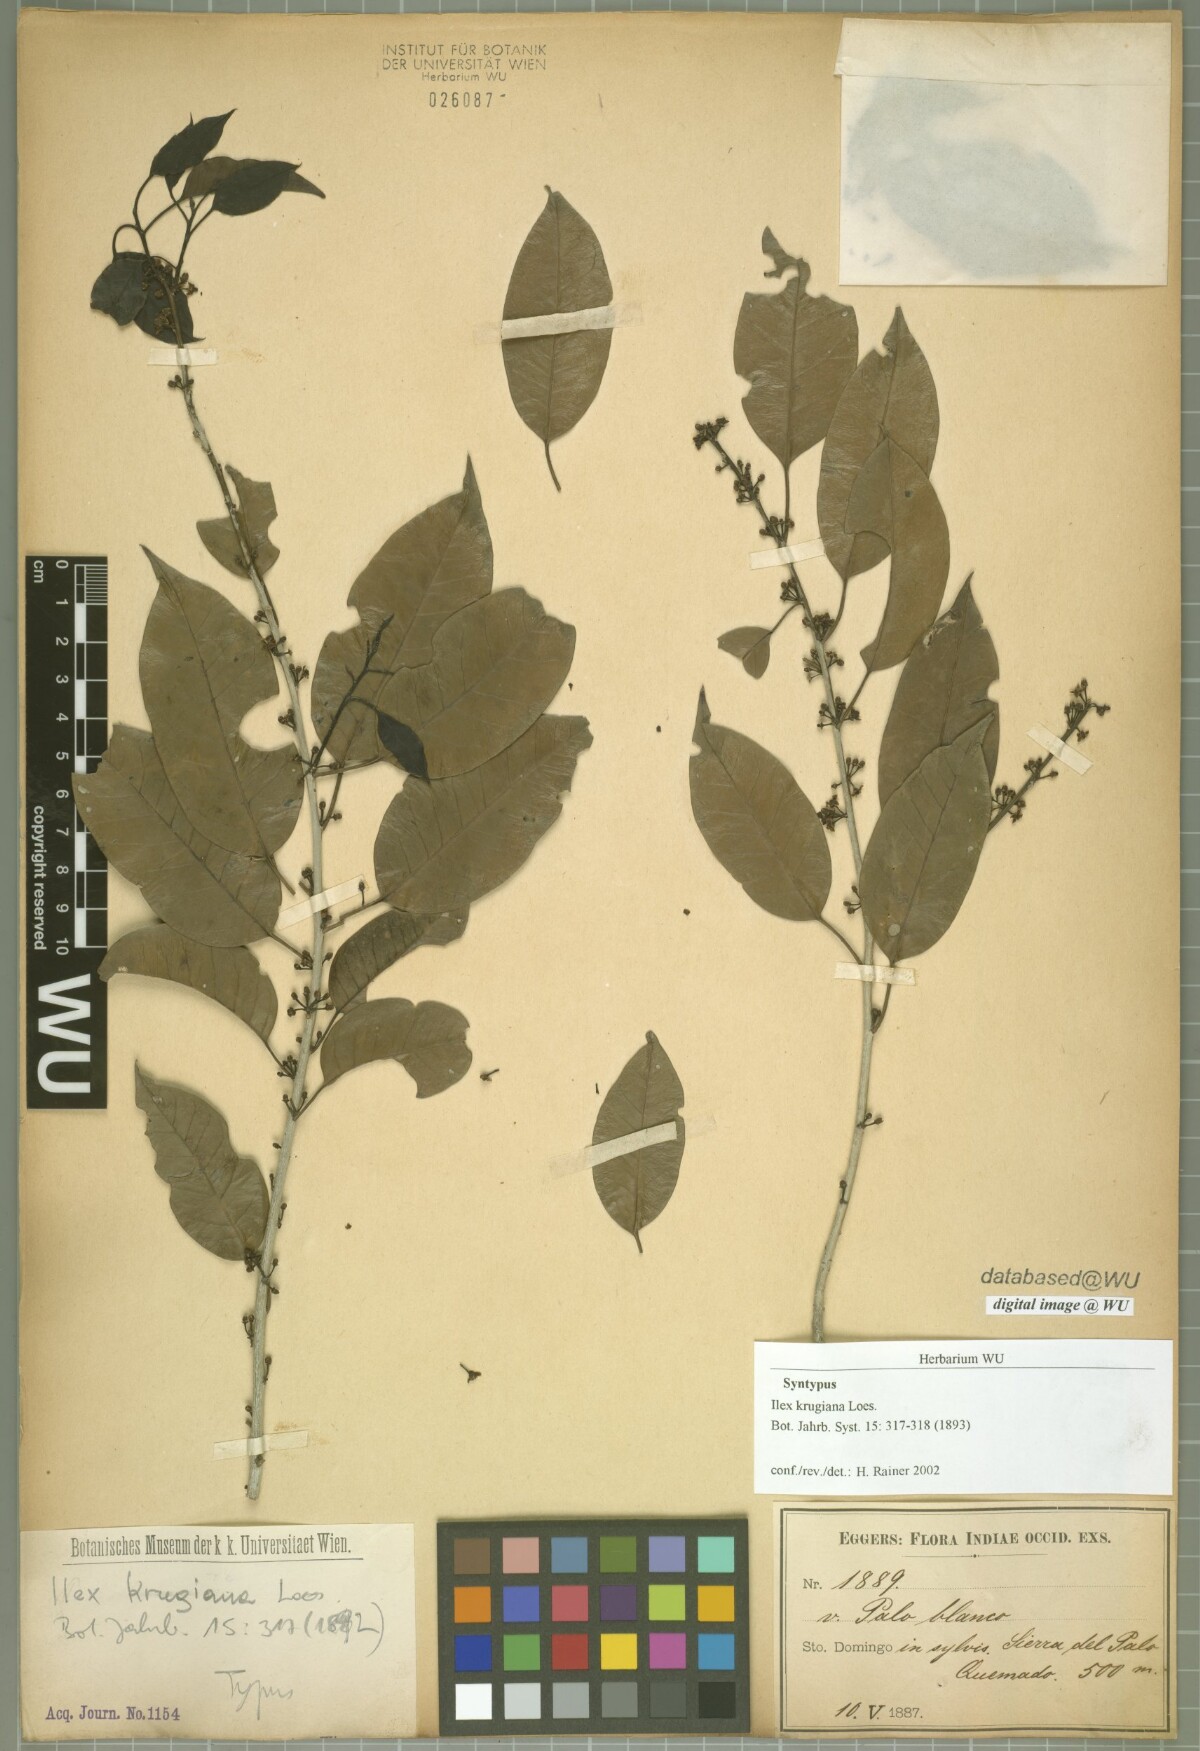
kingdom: Plantae
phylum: Tracheophyta
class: Magnoliopsida
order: Aquifoliales
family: Aquifoliaceae
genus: Ilex
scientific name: Ilex krugiana
